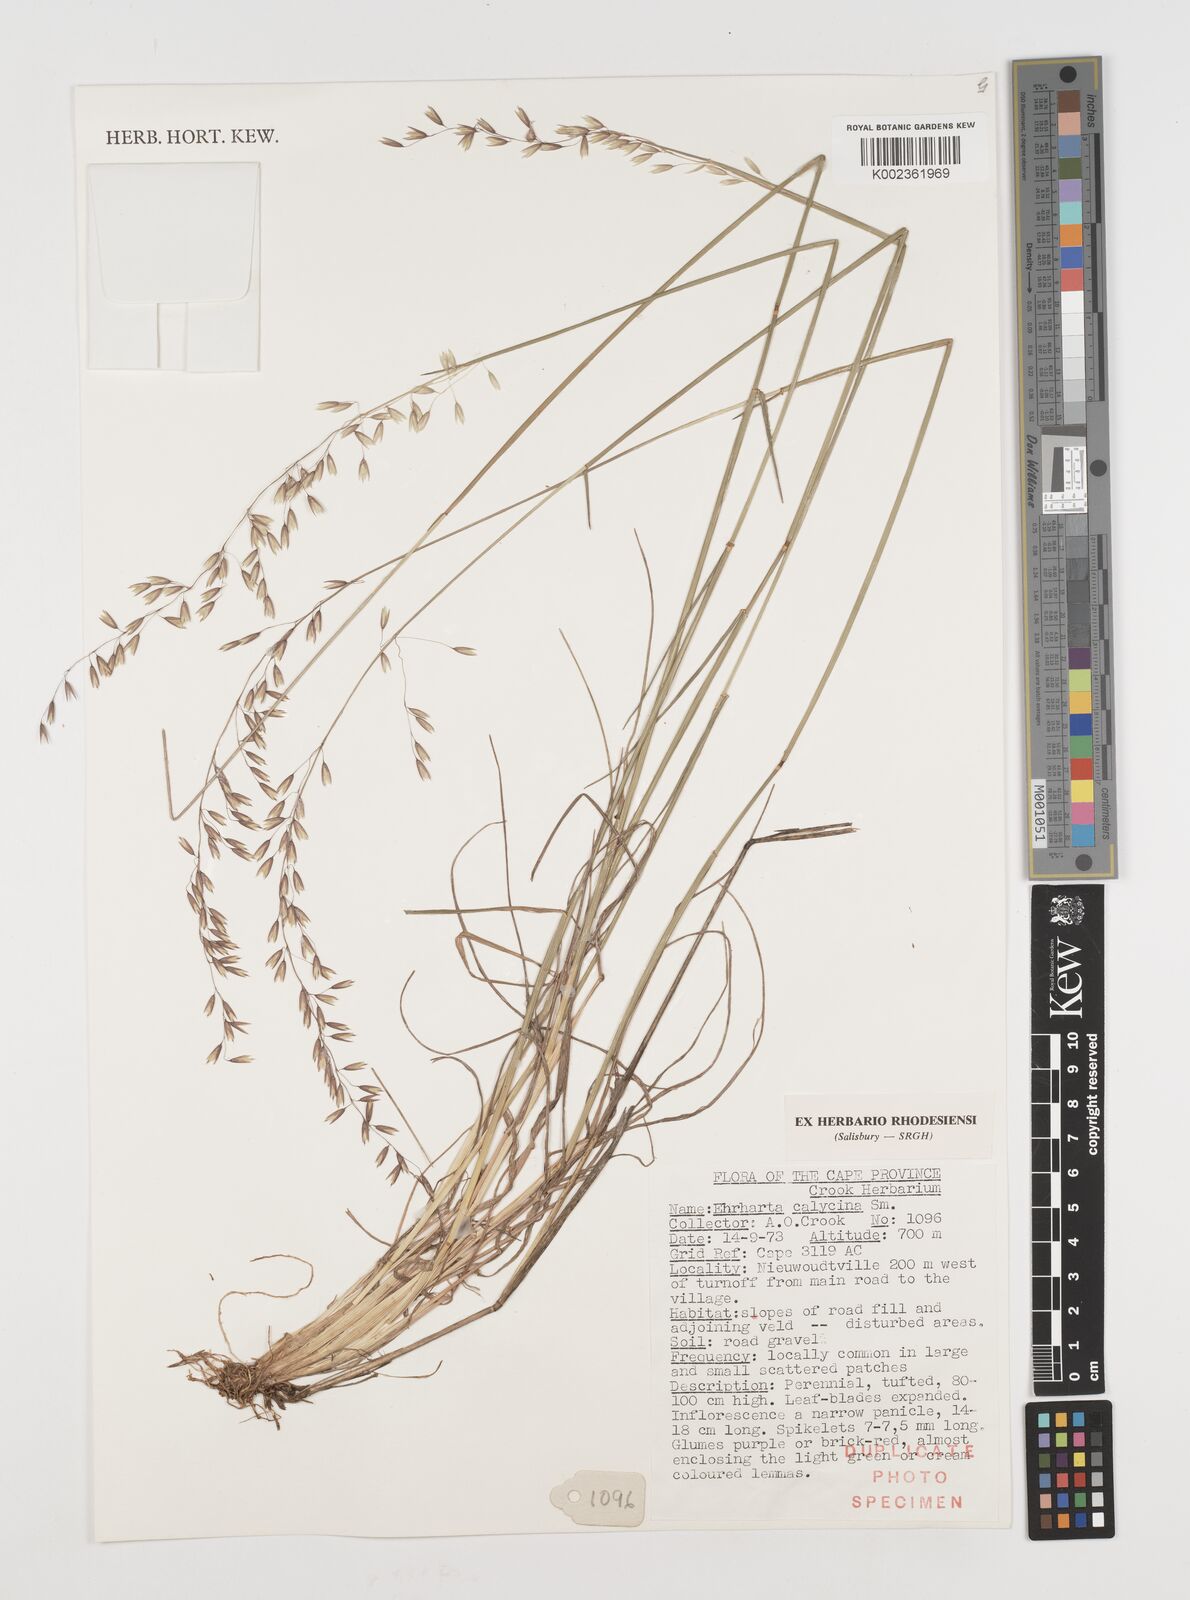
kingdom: Plantae
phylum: Tracheophyta
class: Liliopsida
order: Poales
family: Poaceae
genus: Ehrharta
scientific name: Ehrharta calycina
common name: Perennial veldtgrass
